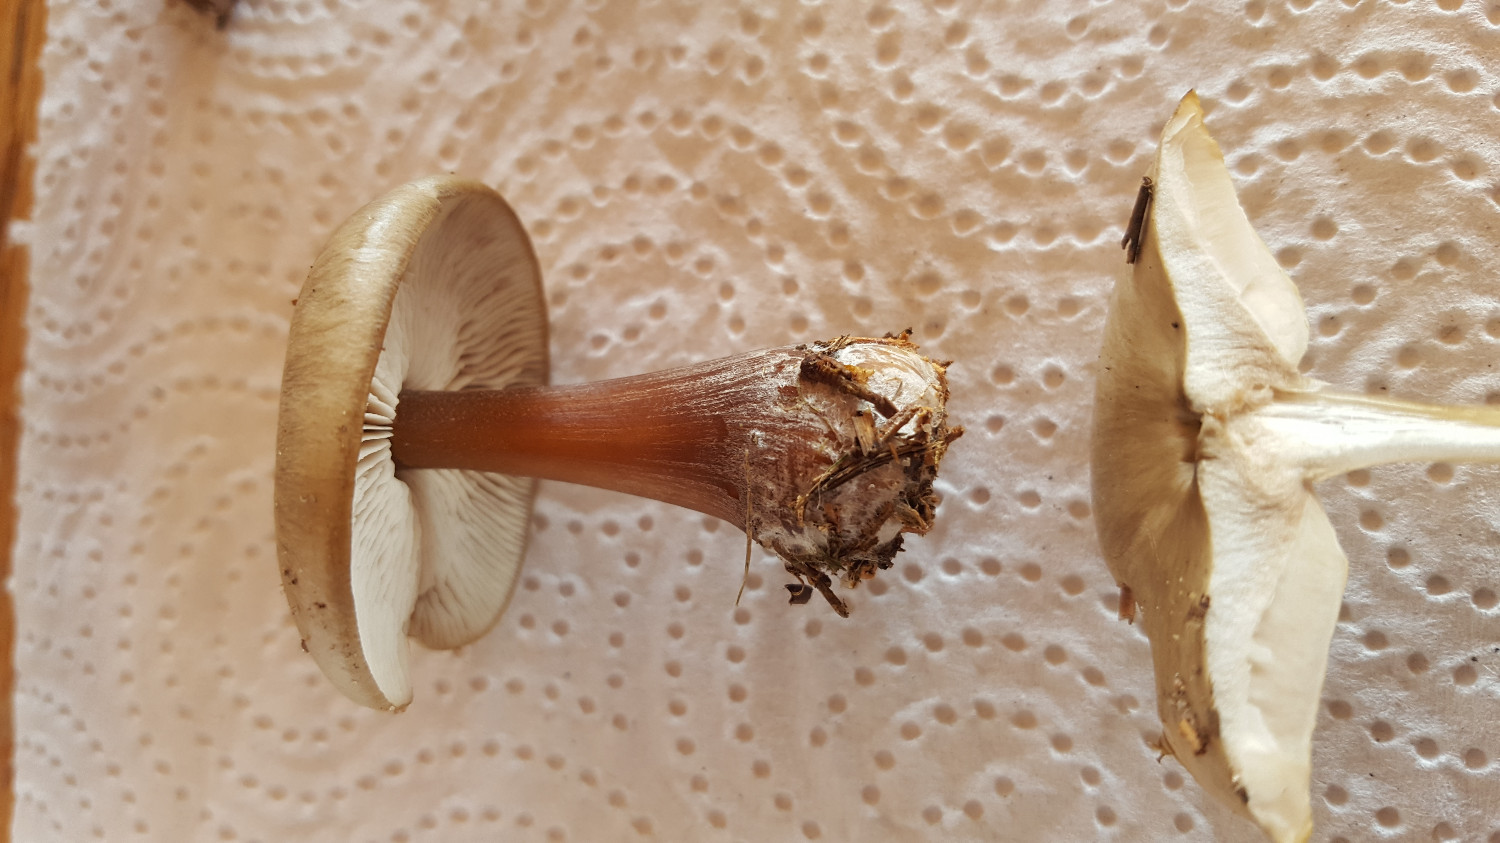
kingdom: Fungi
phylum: Basidiomycota
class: Agaricomycetes
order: Agaricales
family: Omphalotaceae
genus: Rhodocollybia
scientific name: Rhodocollybia asema
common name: horngrå fladhat
